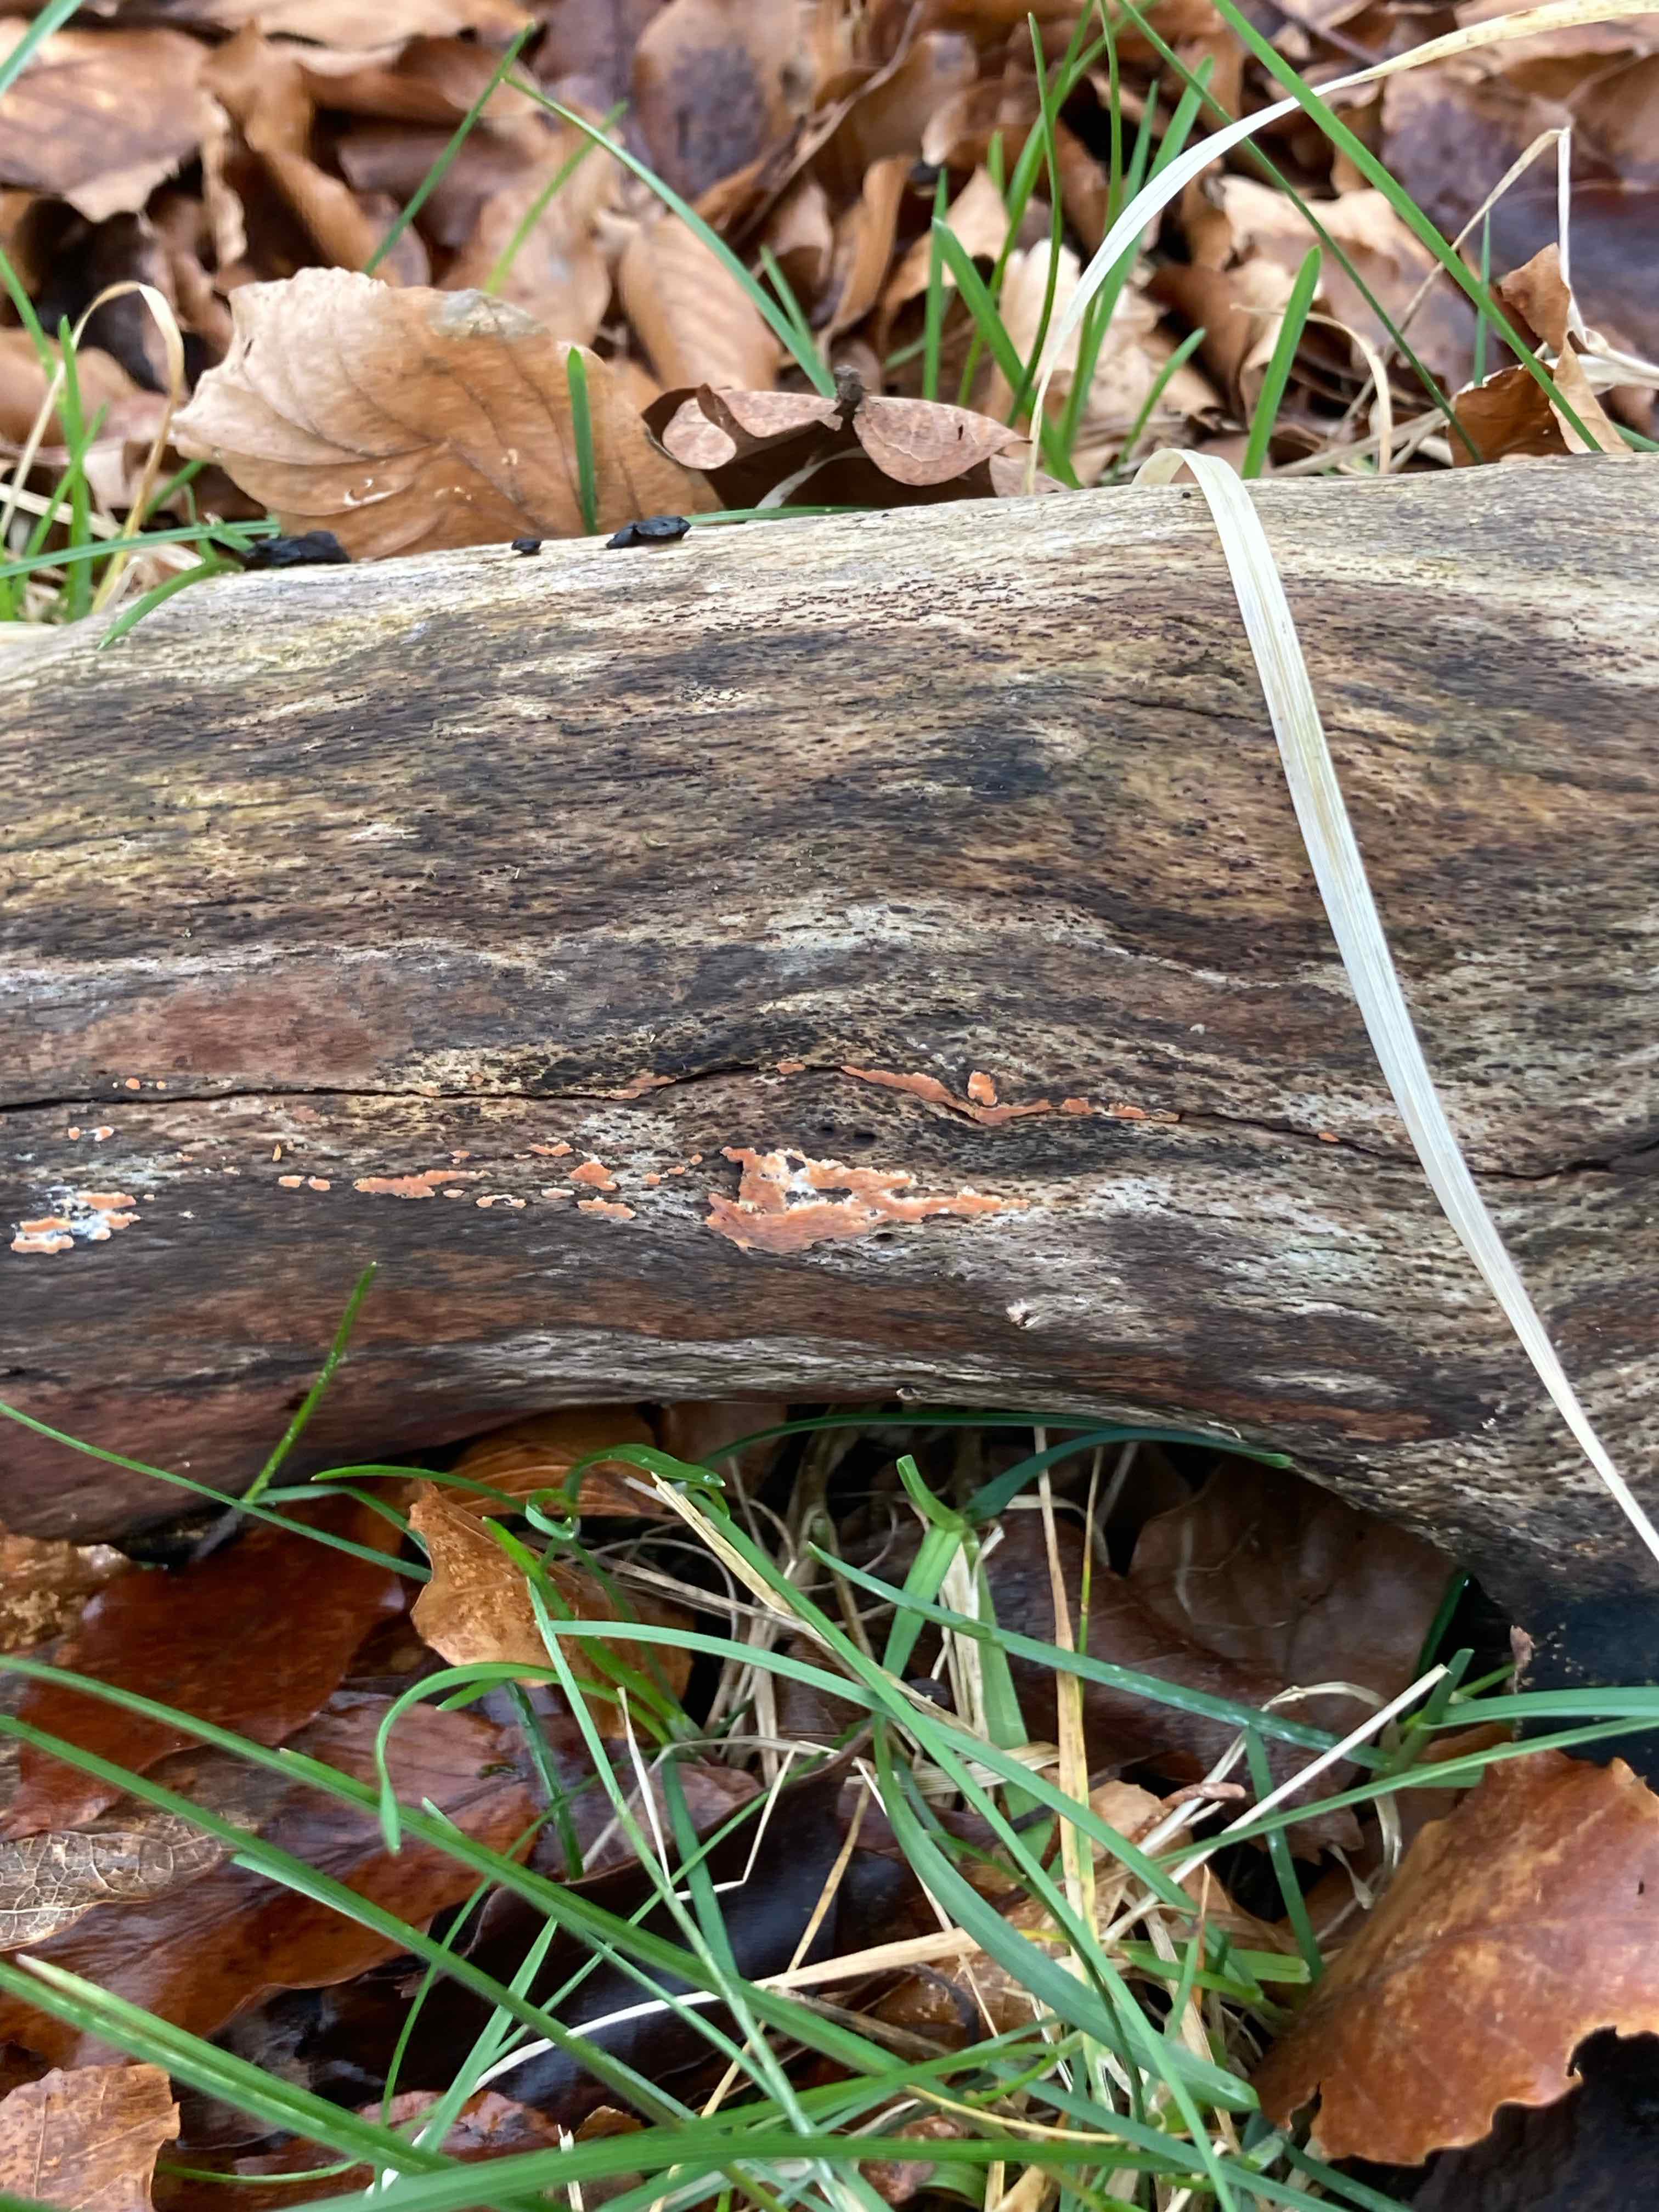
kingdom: Fungi
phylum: Basidiomycota
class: Agaricomycetes
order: Russulales
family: Peniophoraceae
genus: Peniophora
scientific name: Peniophora incarnata
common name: laksefarvet voksskind
